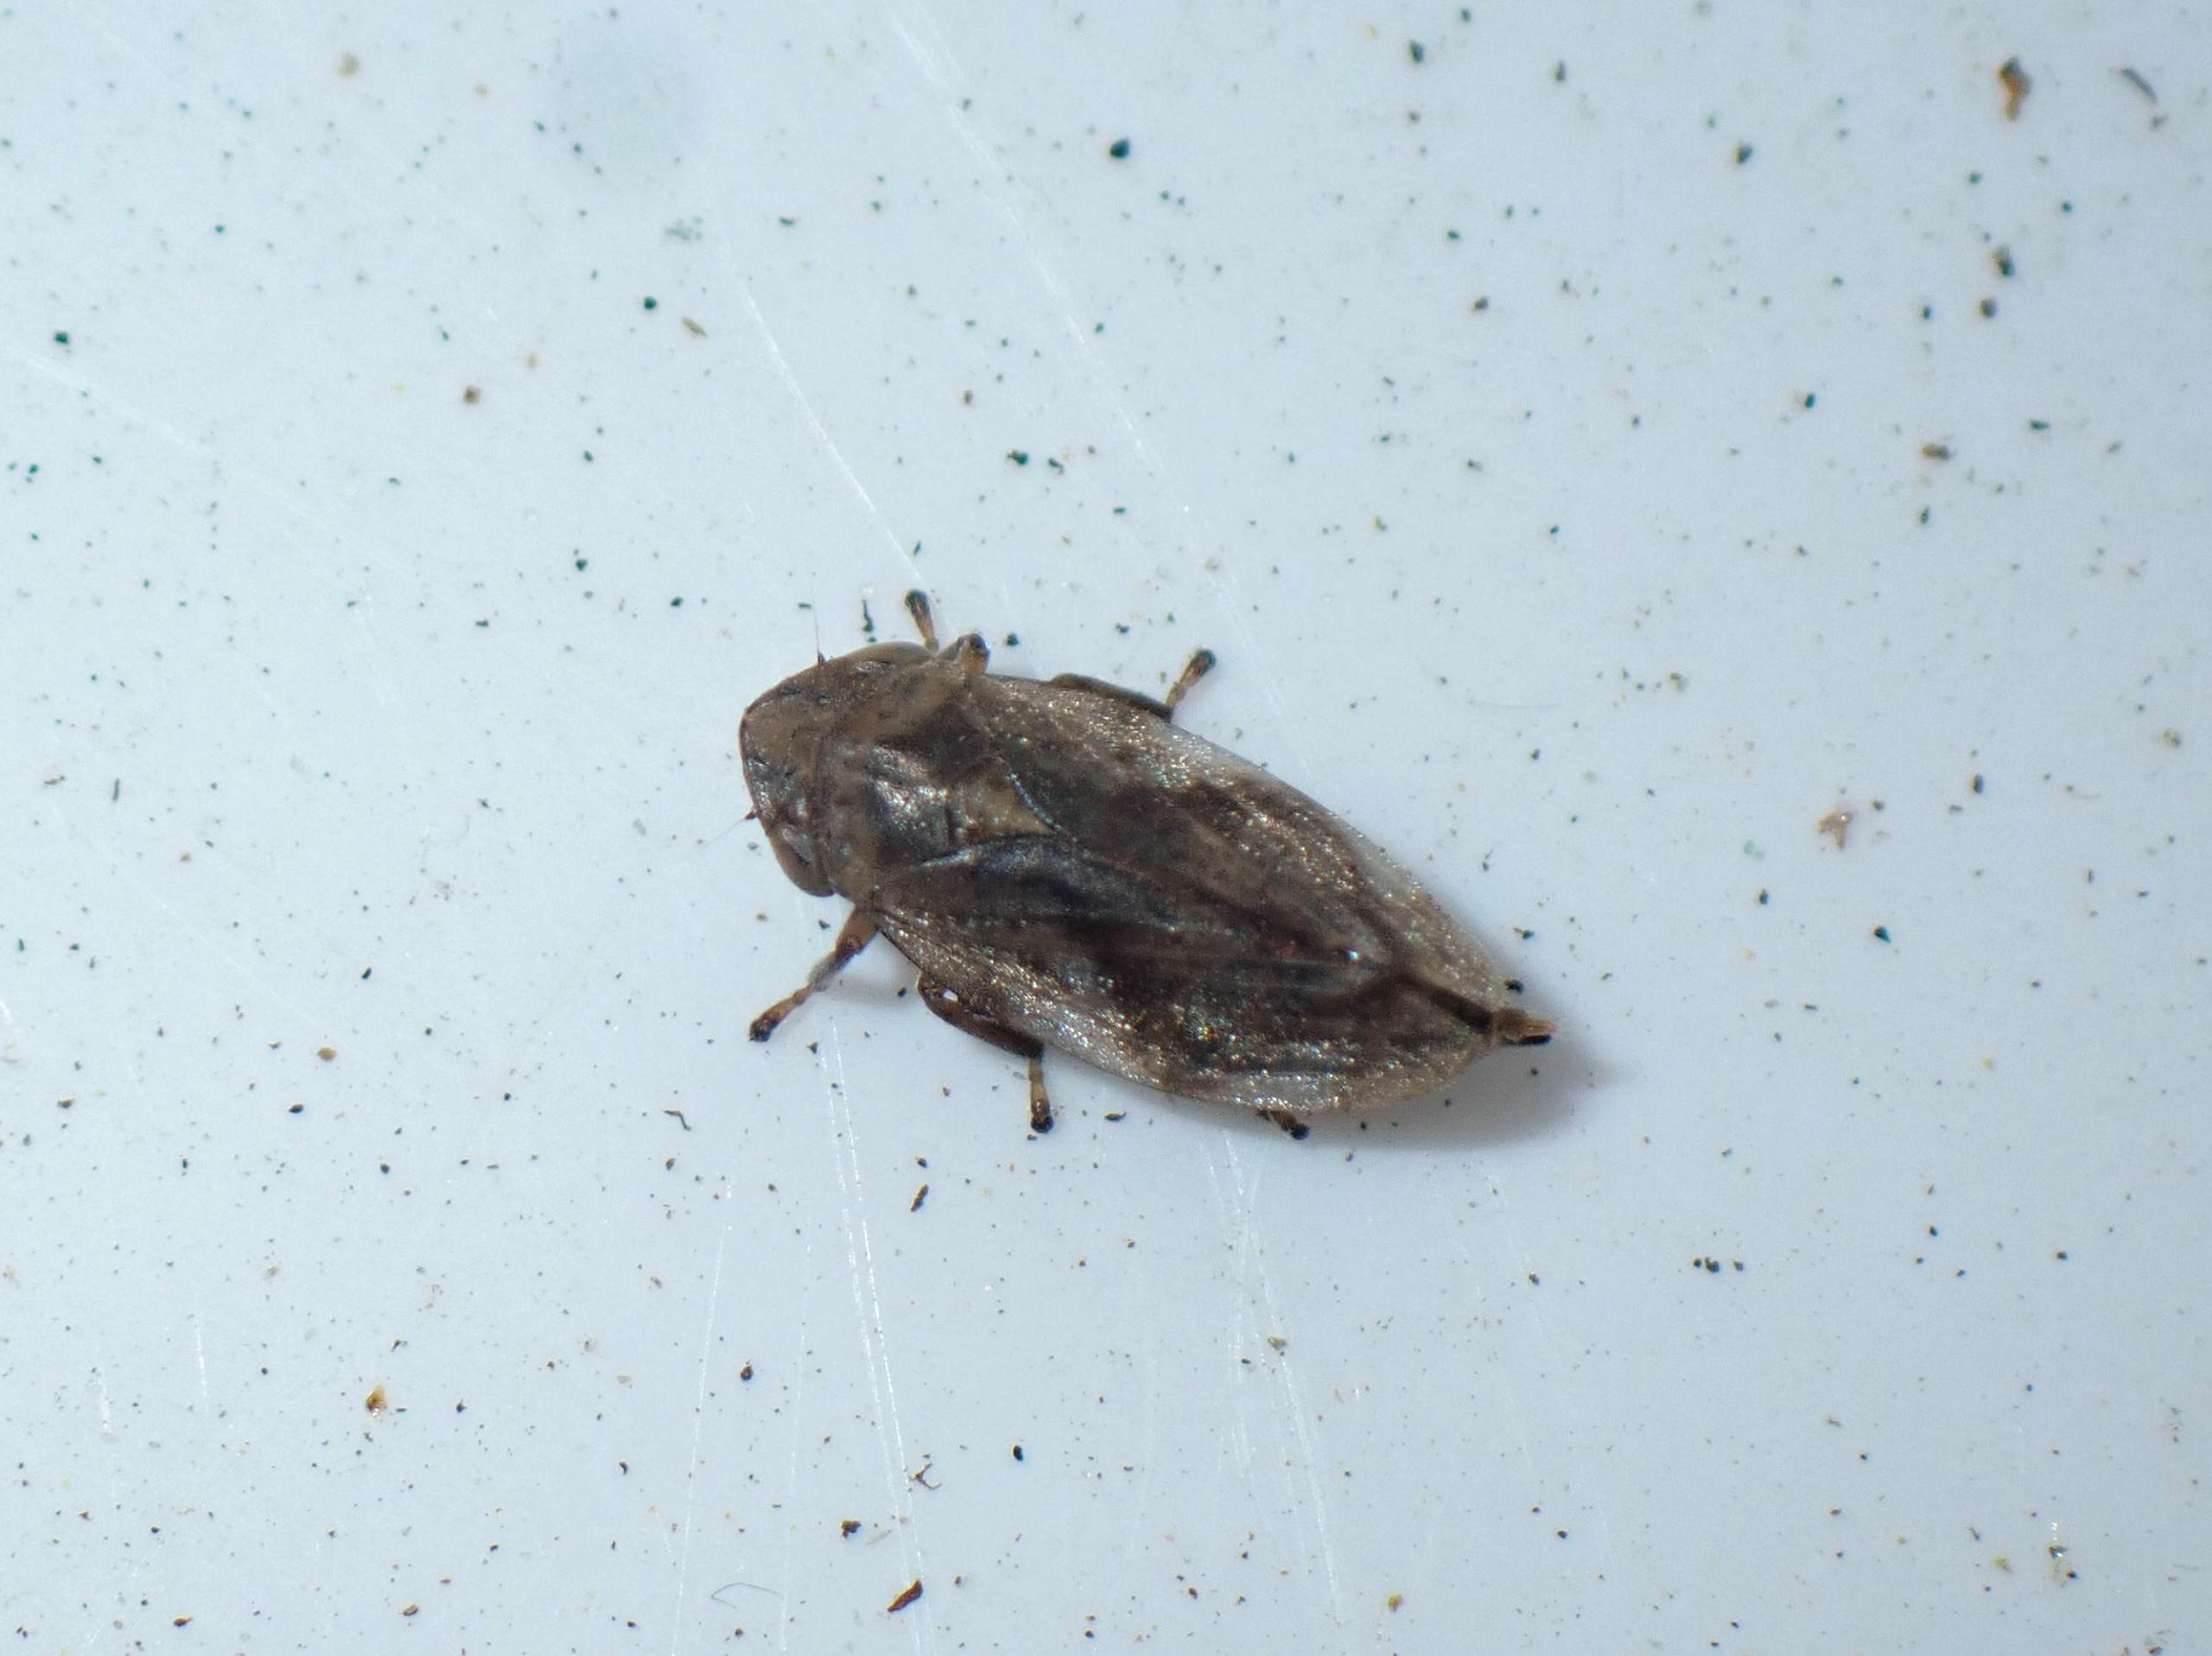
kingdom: Animalia
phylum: Arthropoda
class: Insecta
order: Hemiptera
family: Aphrophoridae
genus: Philaenus
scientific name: Philaenus spumarius
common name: Almindelig skumcikade
